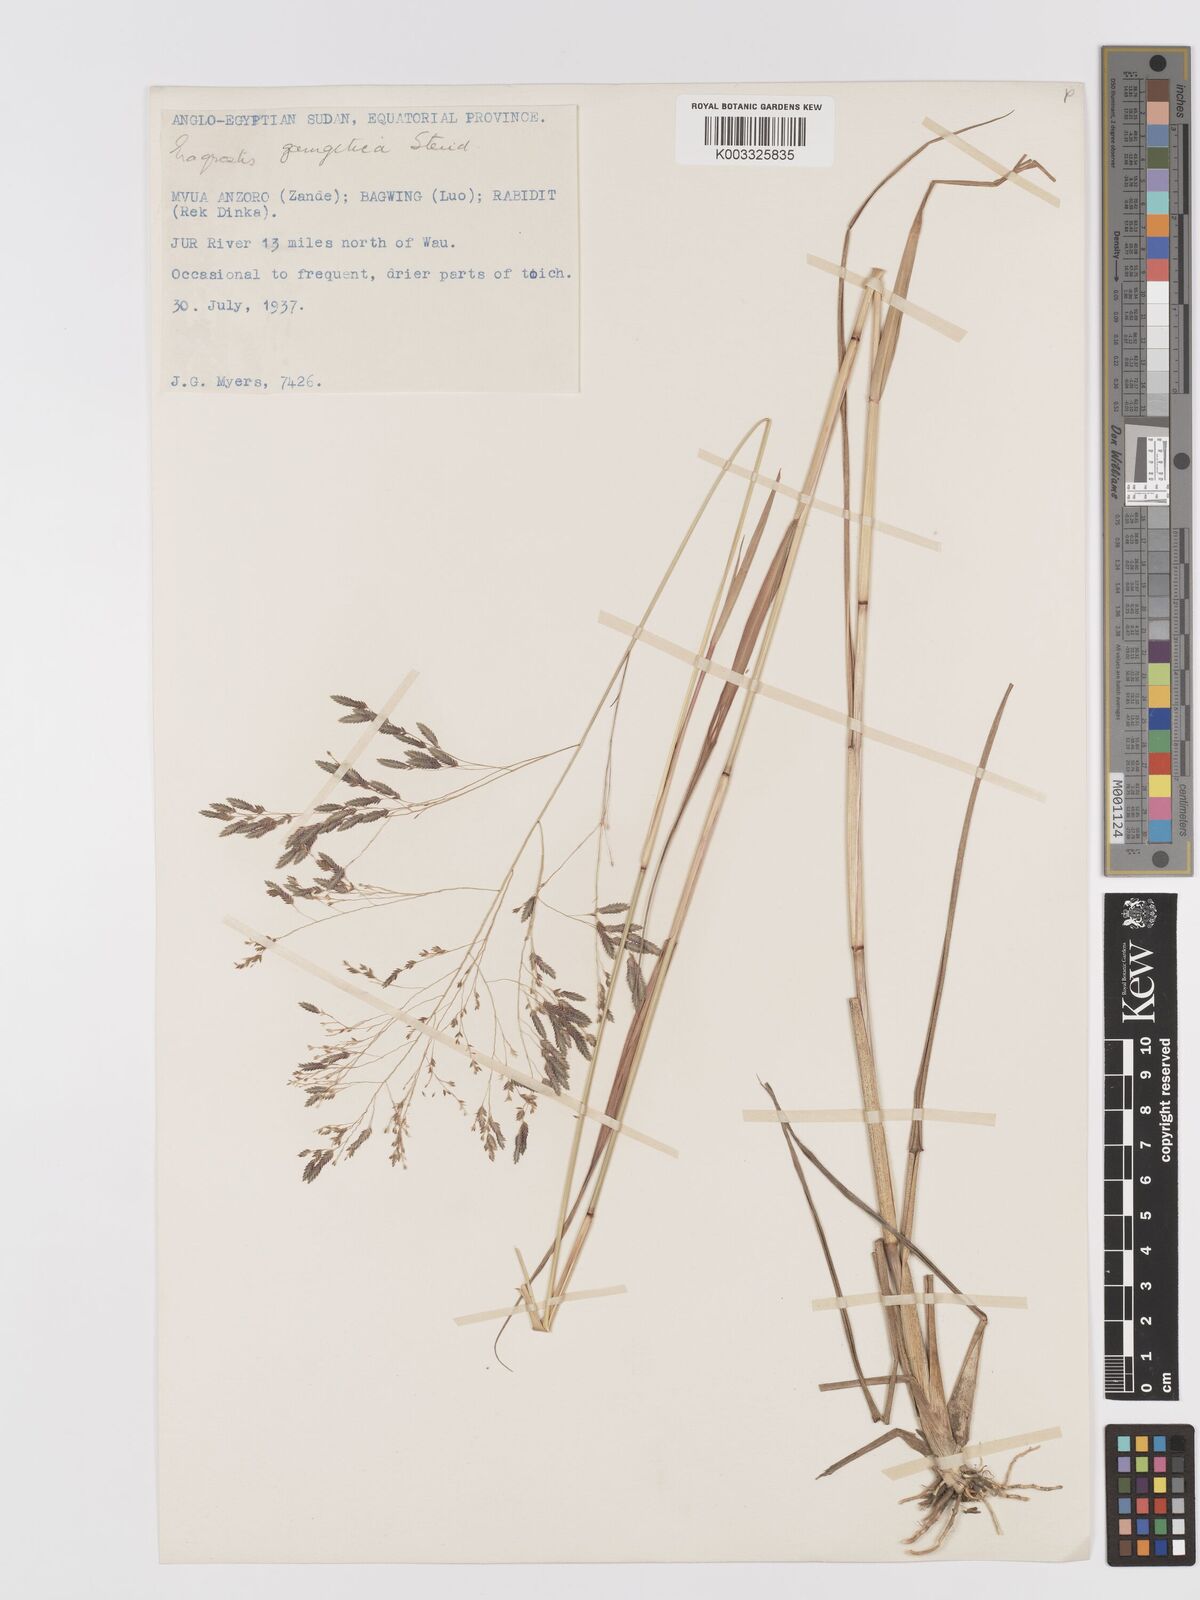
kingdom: Plantae
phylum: Tracheophyta
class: Liliopsida
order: Poales
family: Poaceae
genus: Eragrostis
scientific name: Eragrostis atrovirens
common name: Thalia lovegrass
